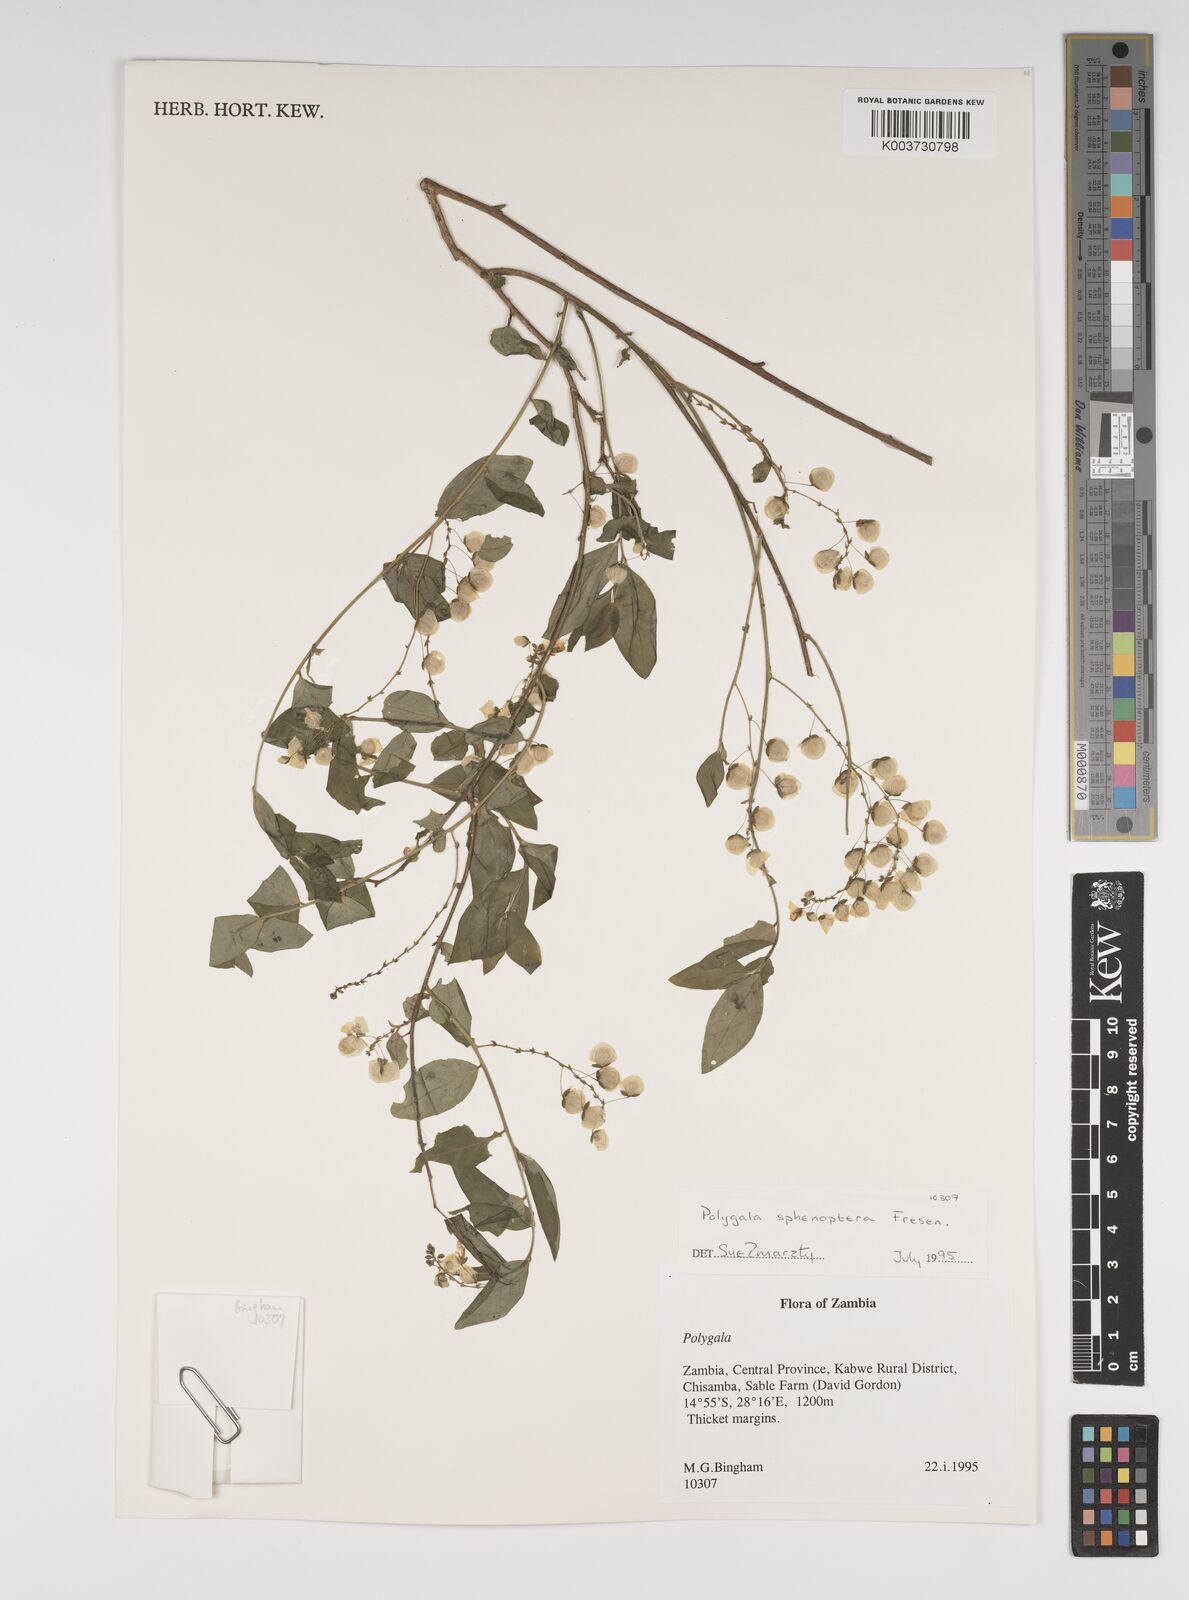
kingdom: Plantae
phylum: Tracheophyta
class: Magnoliopsida
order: Fabales
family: Polygalaceae
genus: Polygala
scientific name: Polygala sphenoptera
